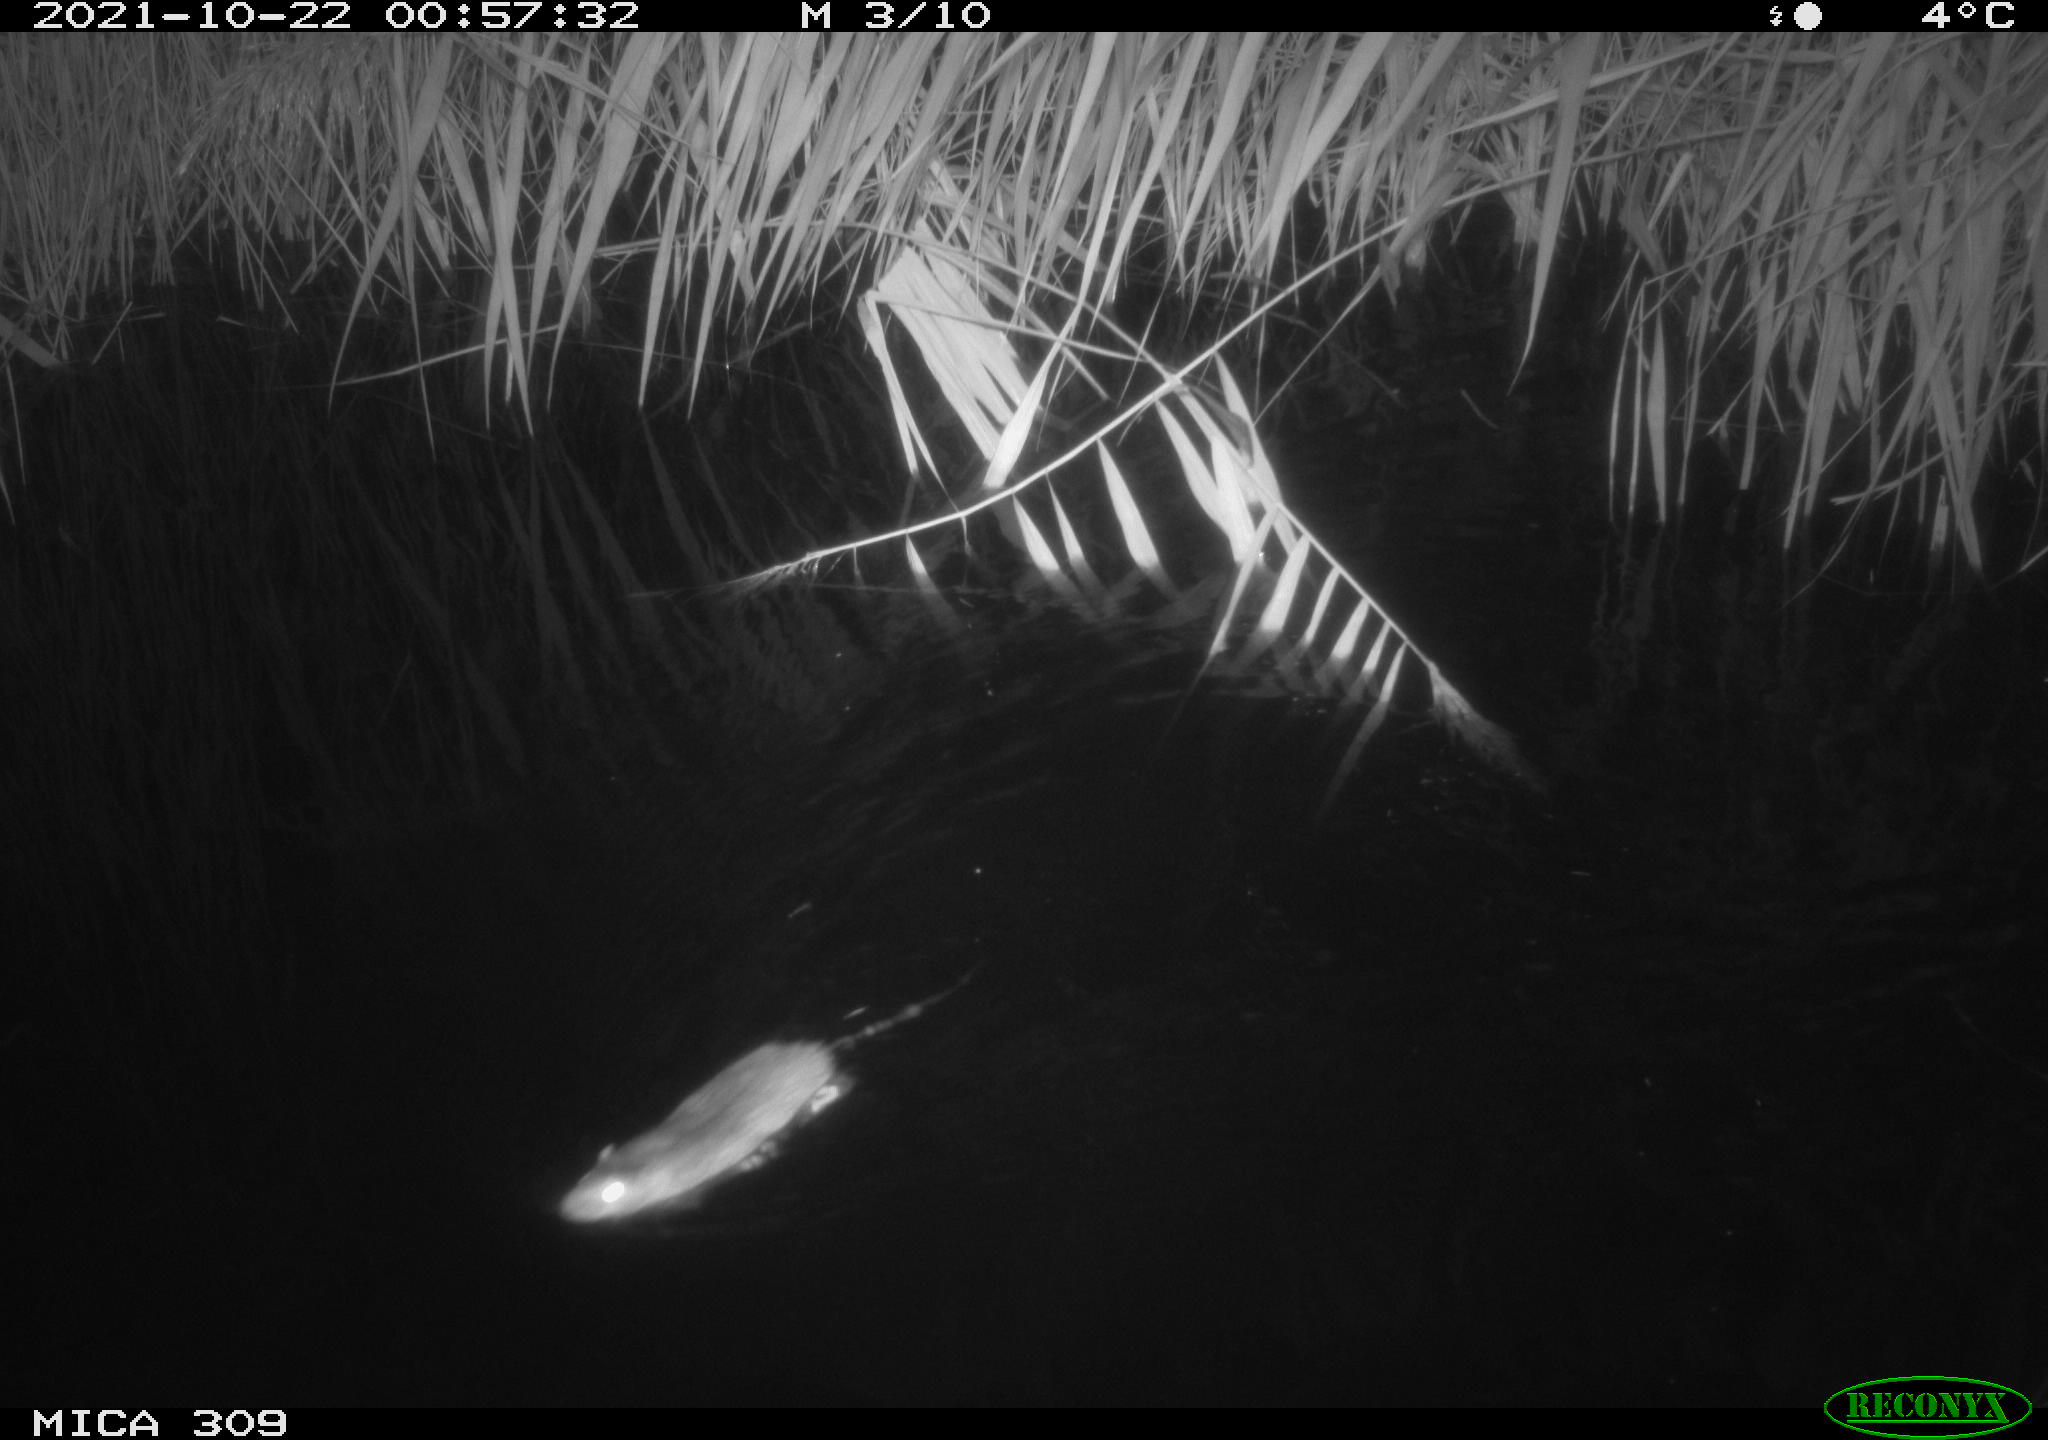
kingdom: Animalia
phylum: Chordata
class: Mammalia
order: Rodentia
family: Muridae
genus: Rattus
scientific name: Rattus norvegicus
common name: Brown rat
